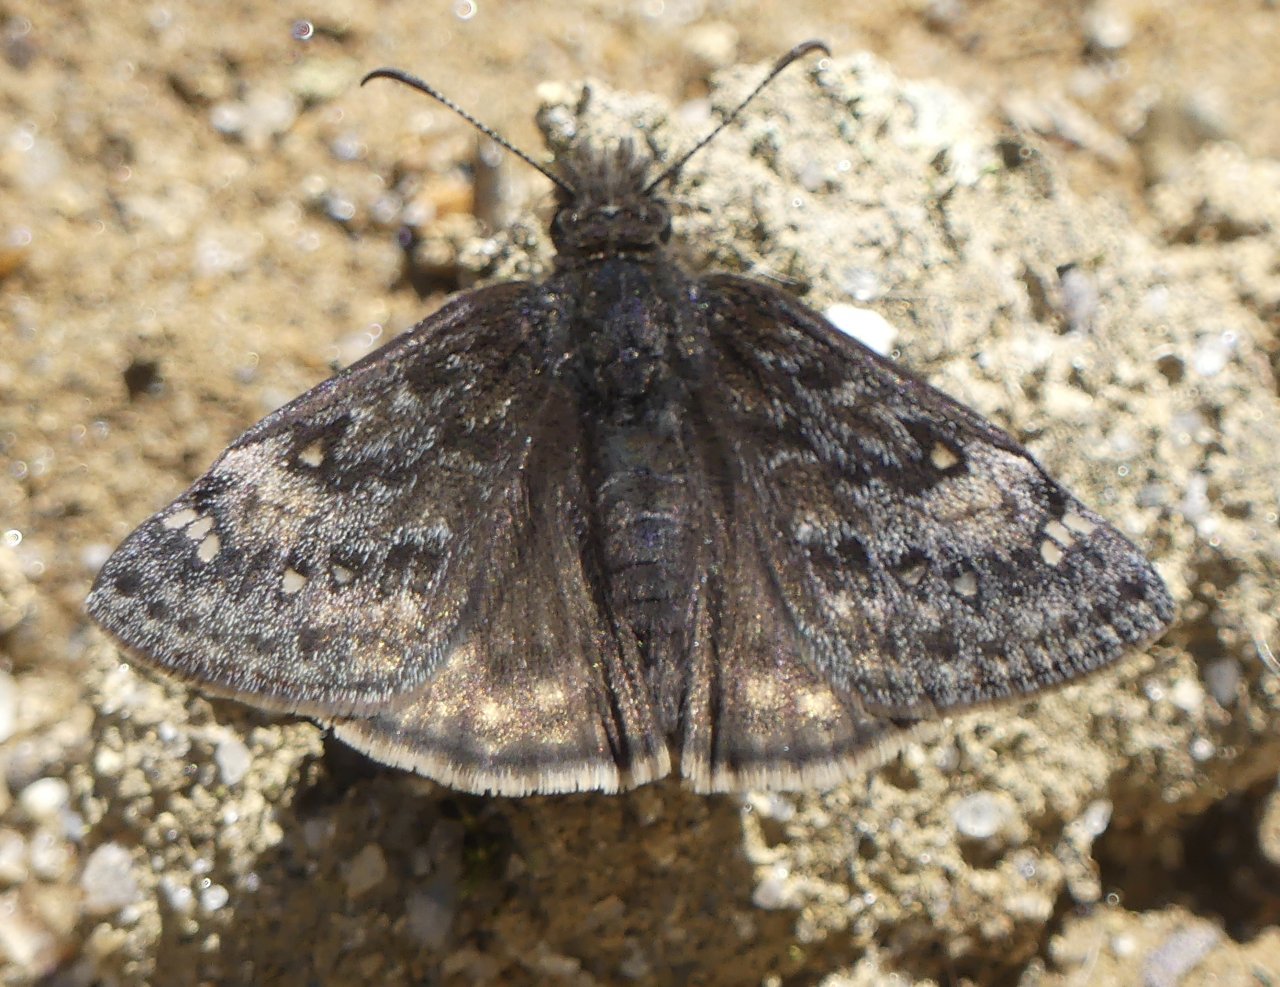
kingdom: Animalia
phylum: Arthropoda
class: Insecta
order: Lepidoptera
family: Hesperiidae
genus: Gesta
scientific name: Gesta
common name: Juvenal's Duskywing
